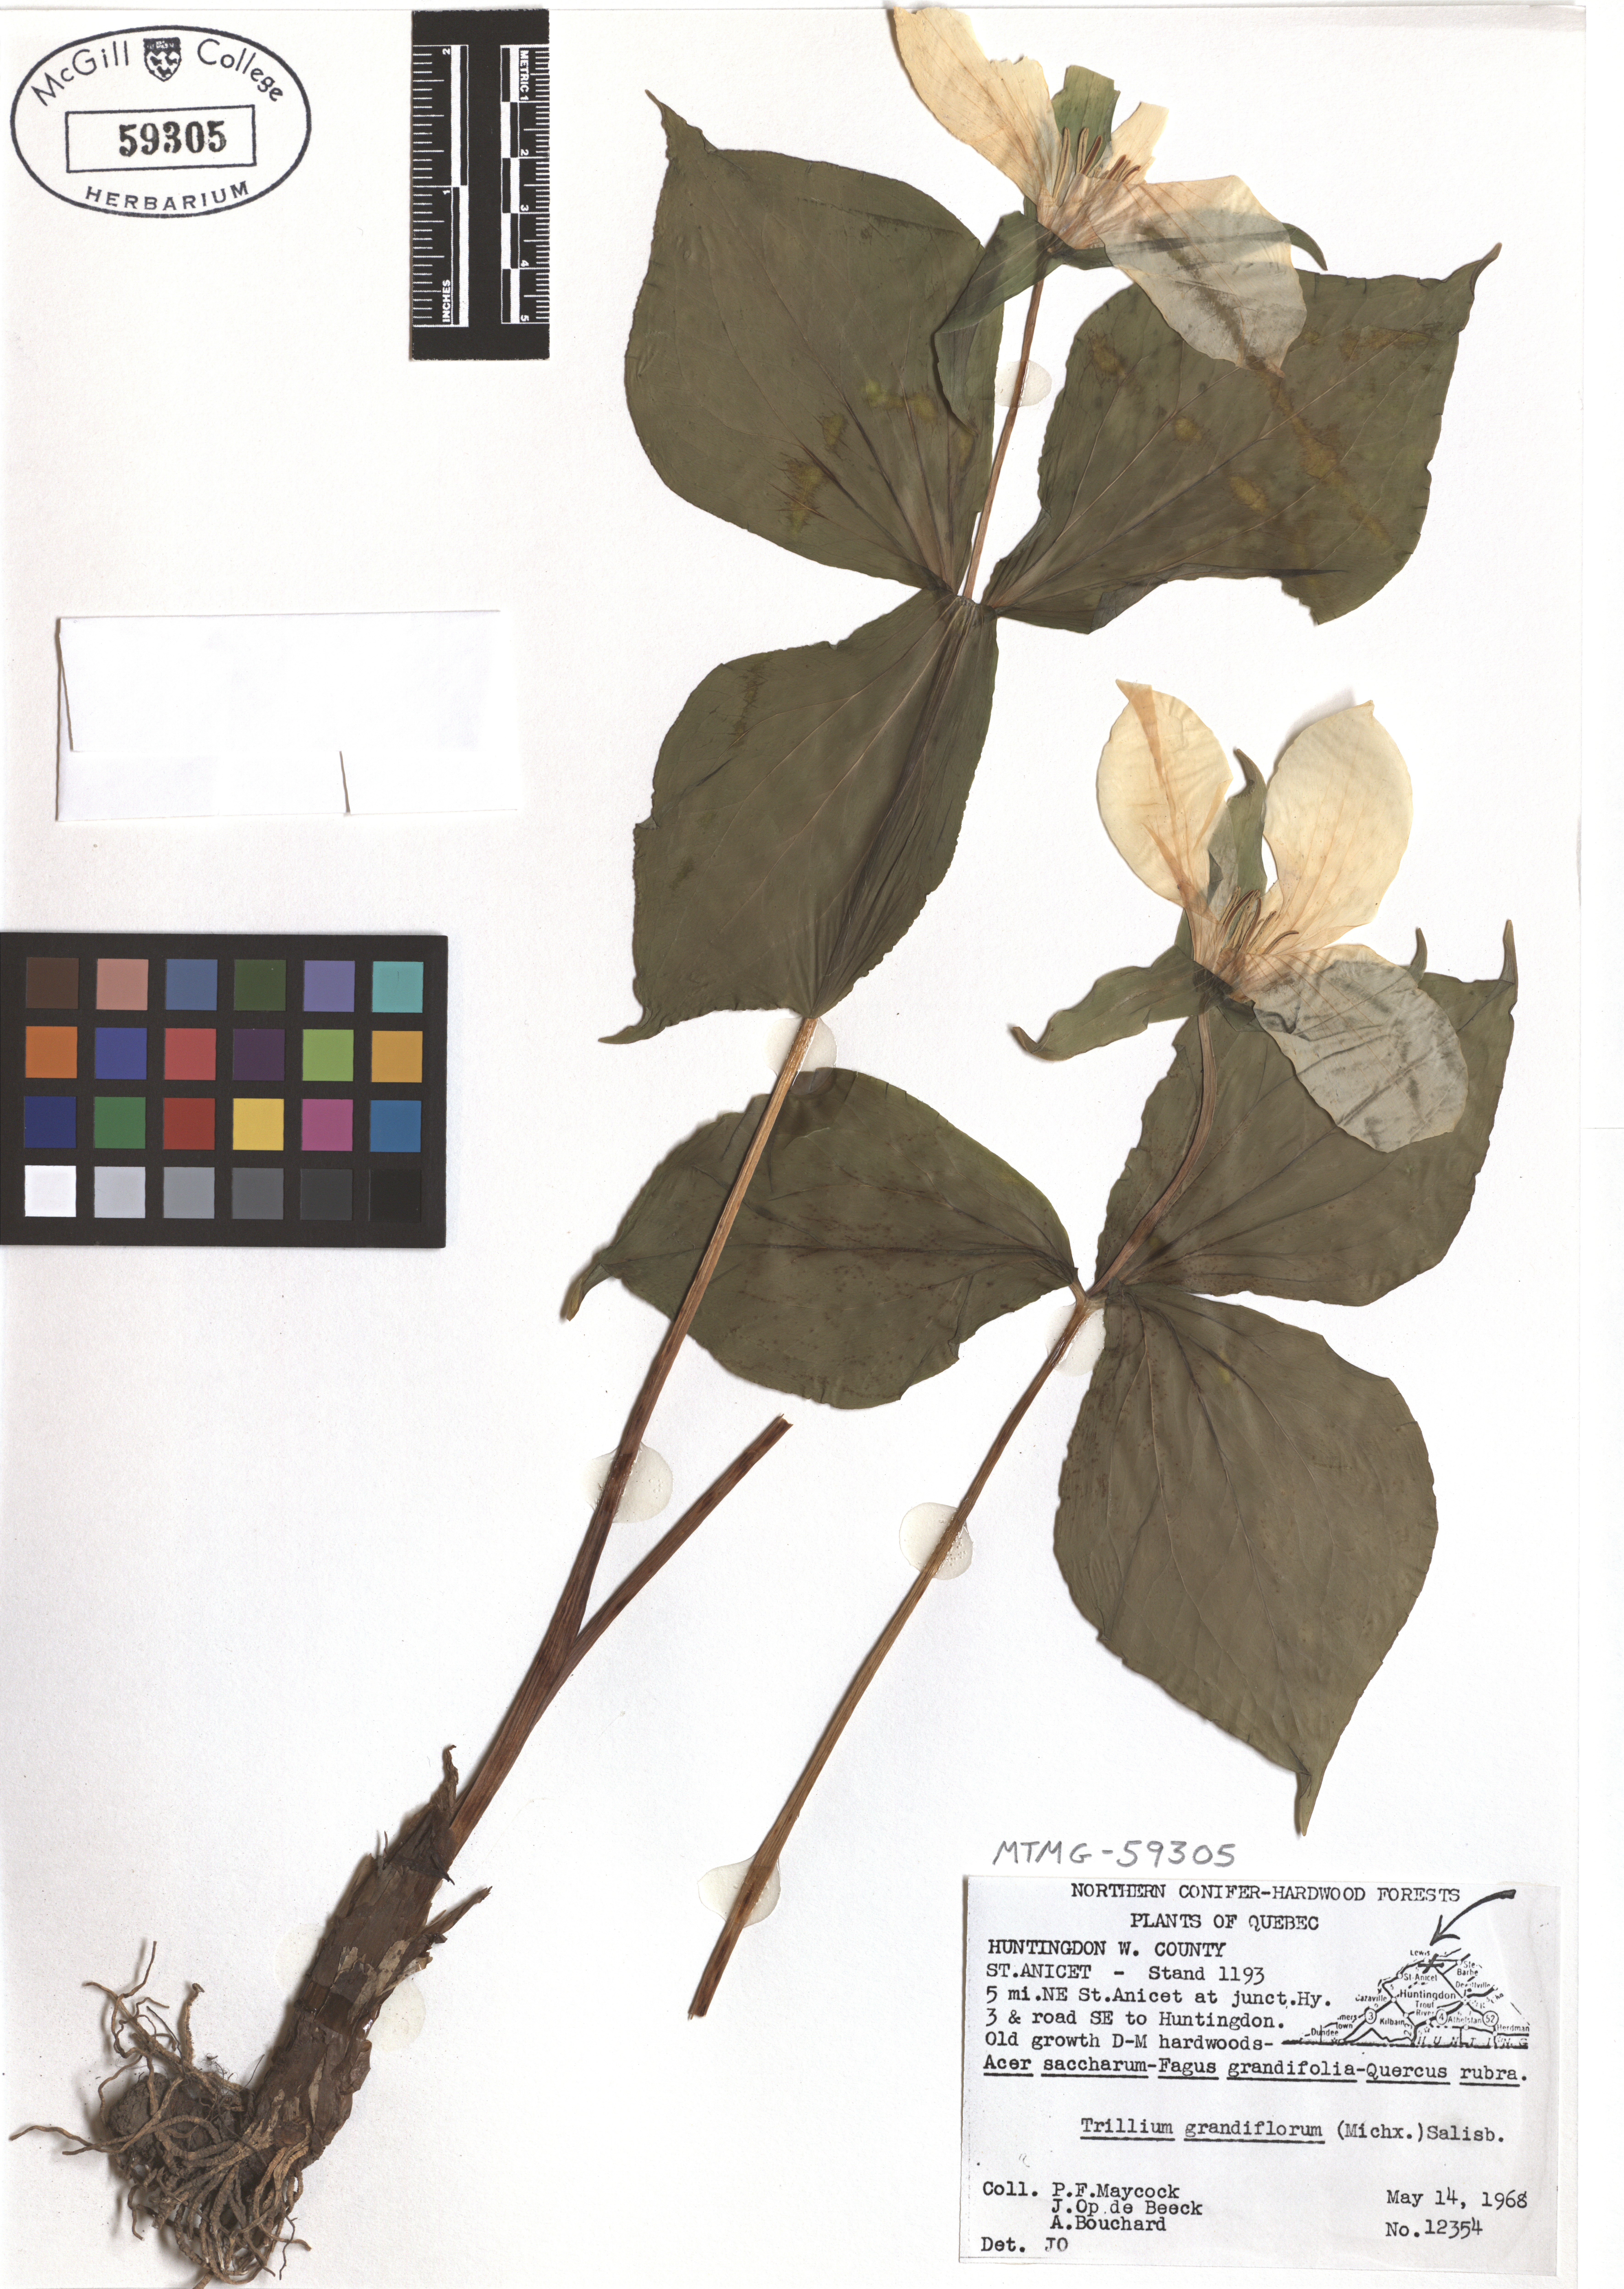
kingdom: Plantae
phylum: Tracheophyta
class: Liliopsida
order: Liliales
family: Melanthiaceae
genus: Trillium
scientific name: Trillium grandiflorum
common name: Great white trillium
